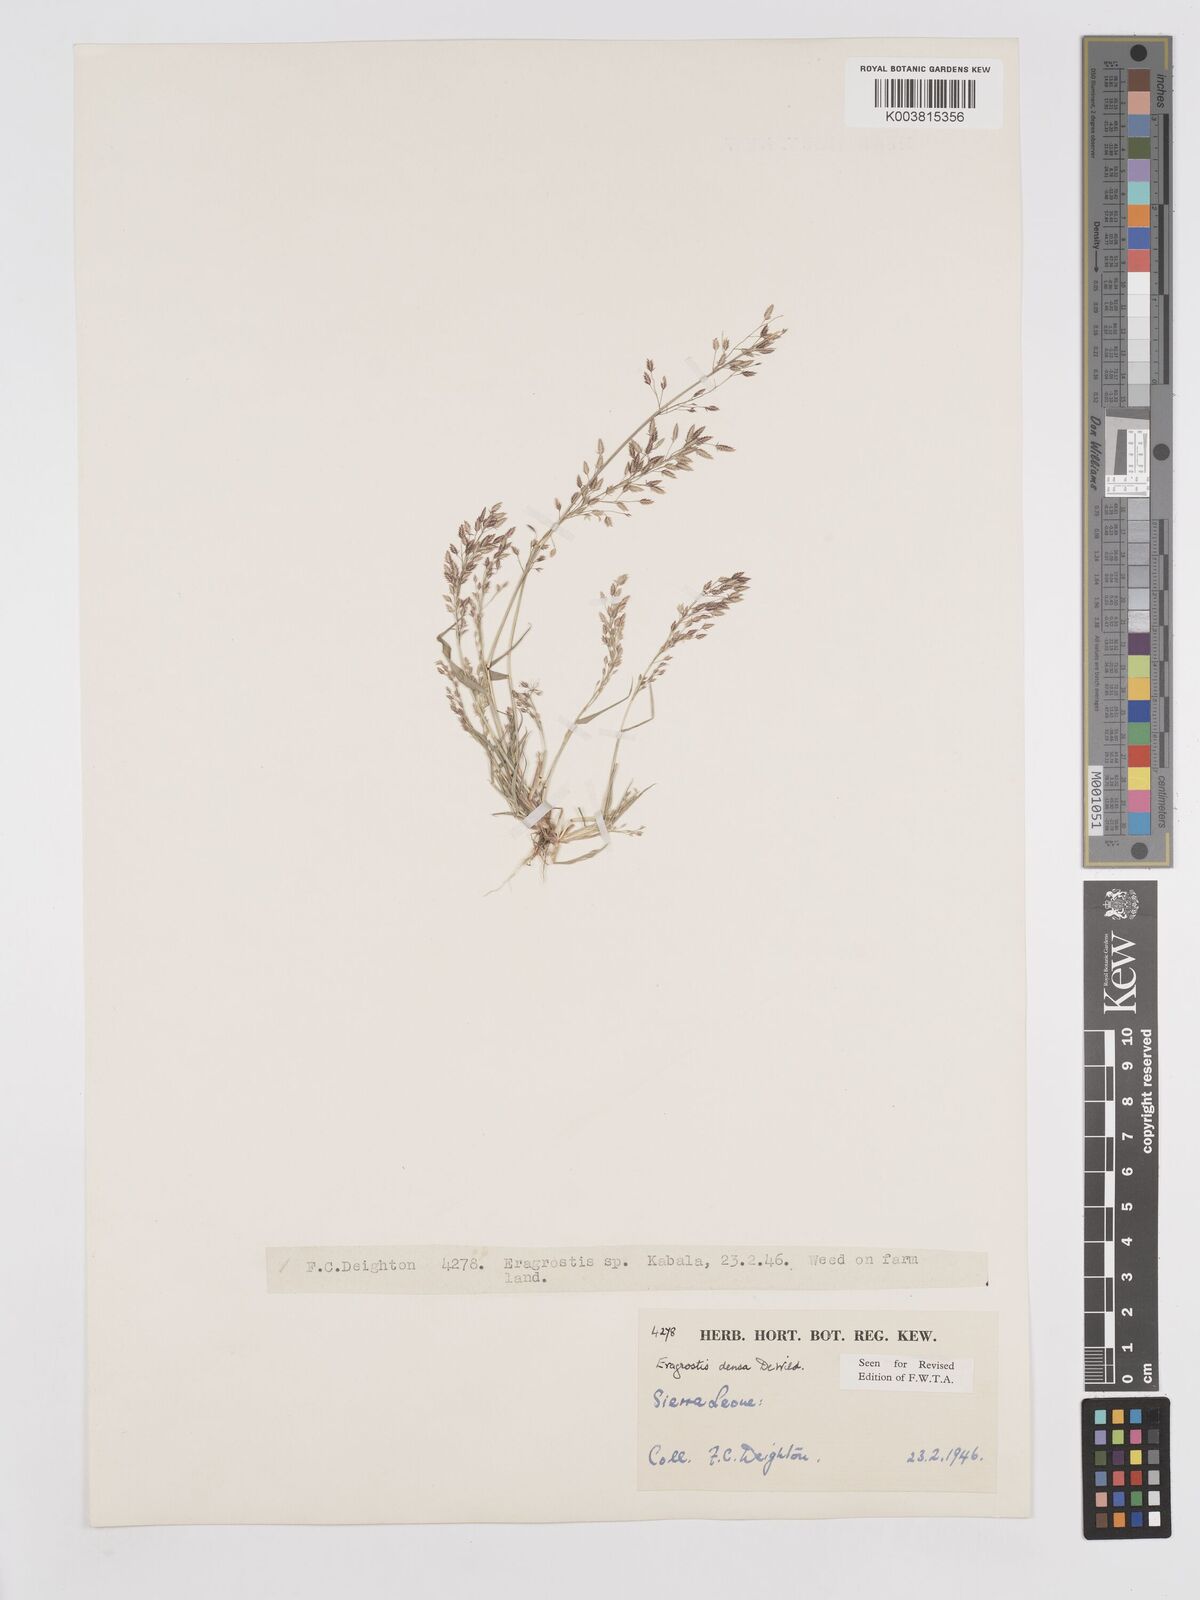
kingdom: Plantae
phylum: Tracheophyta
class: Liliopsida
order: Poales
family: Poaceae
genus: Eragrostis
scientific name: Eragrostis welwitschii
